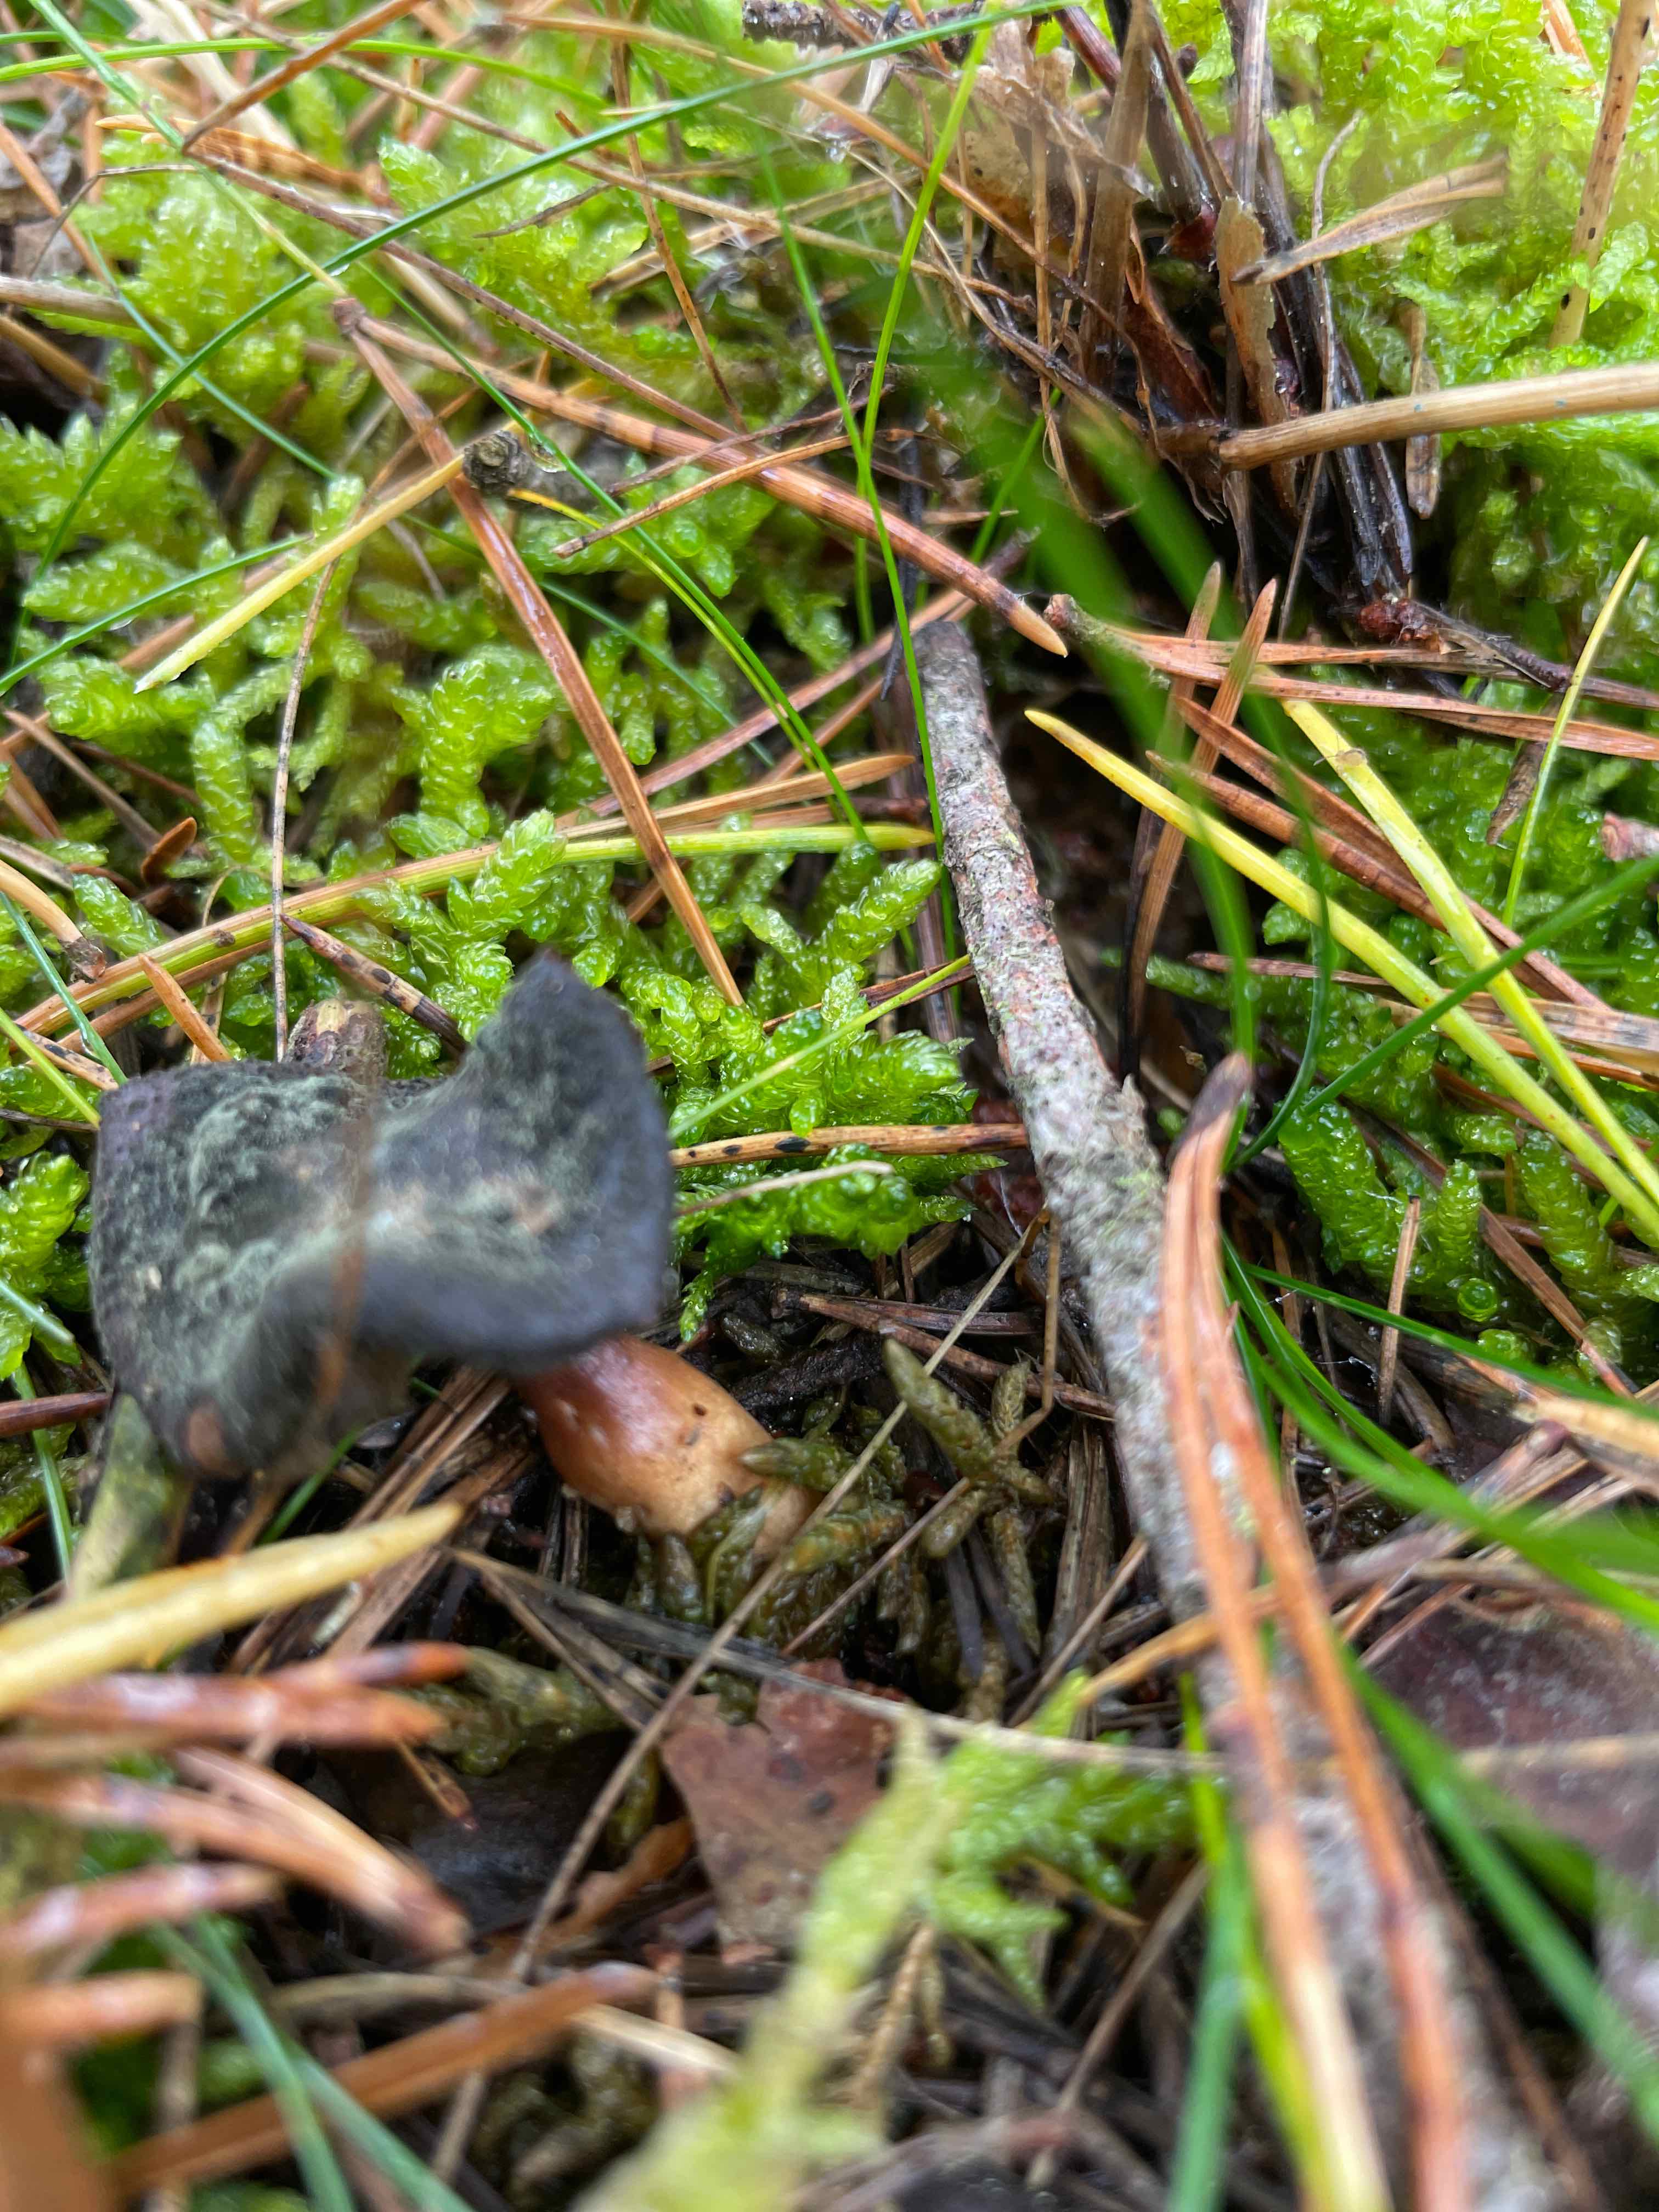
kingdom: Fungi
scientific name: Fungi
